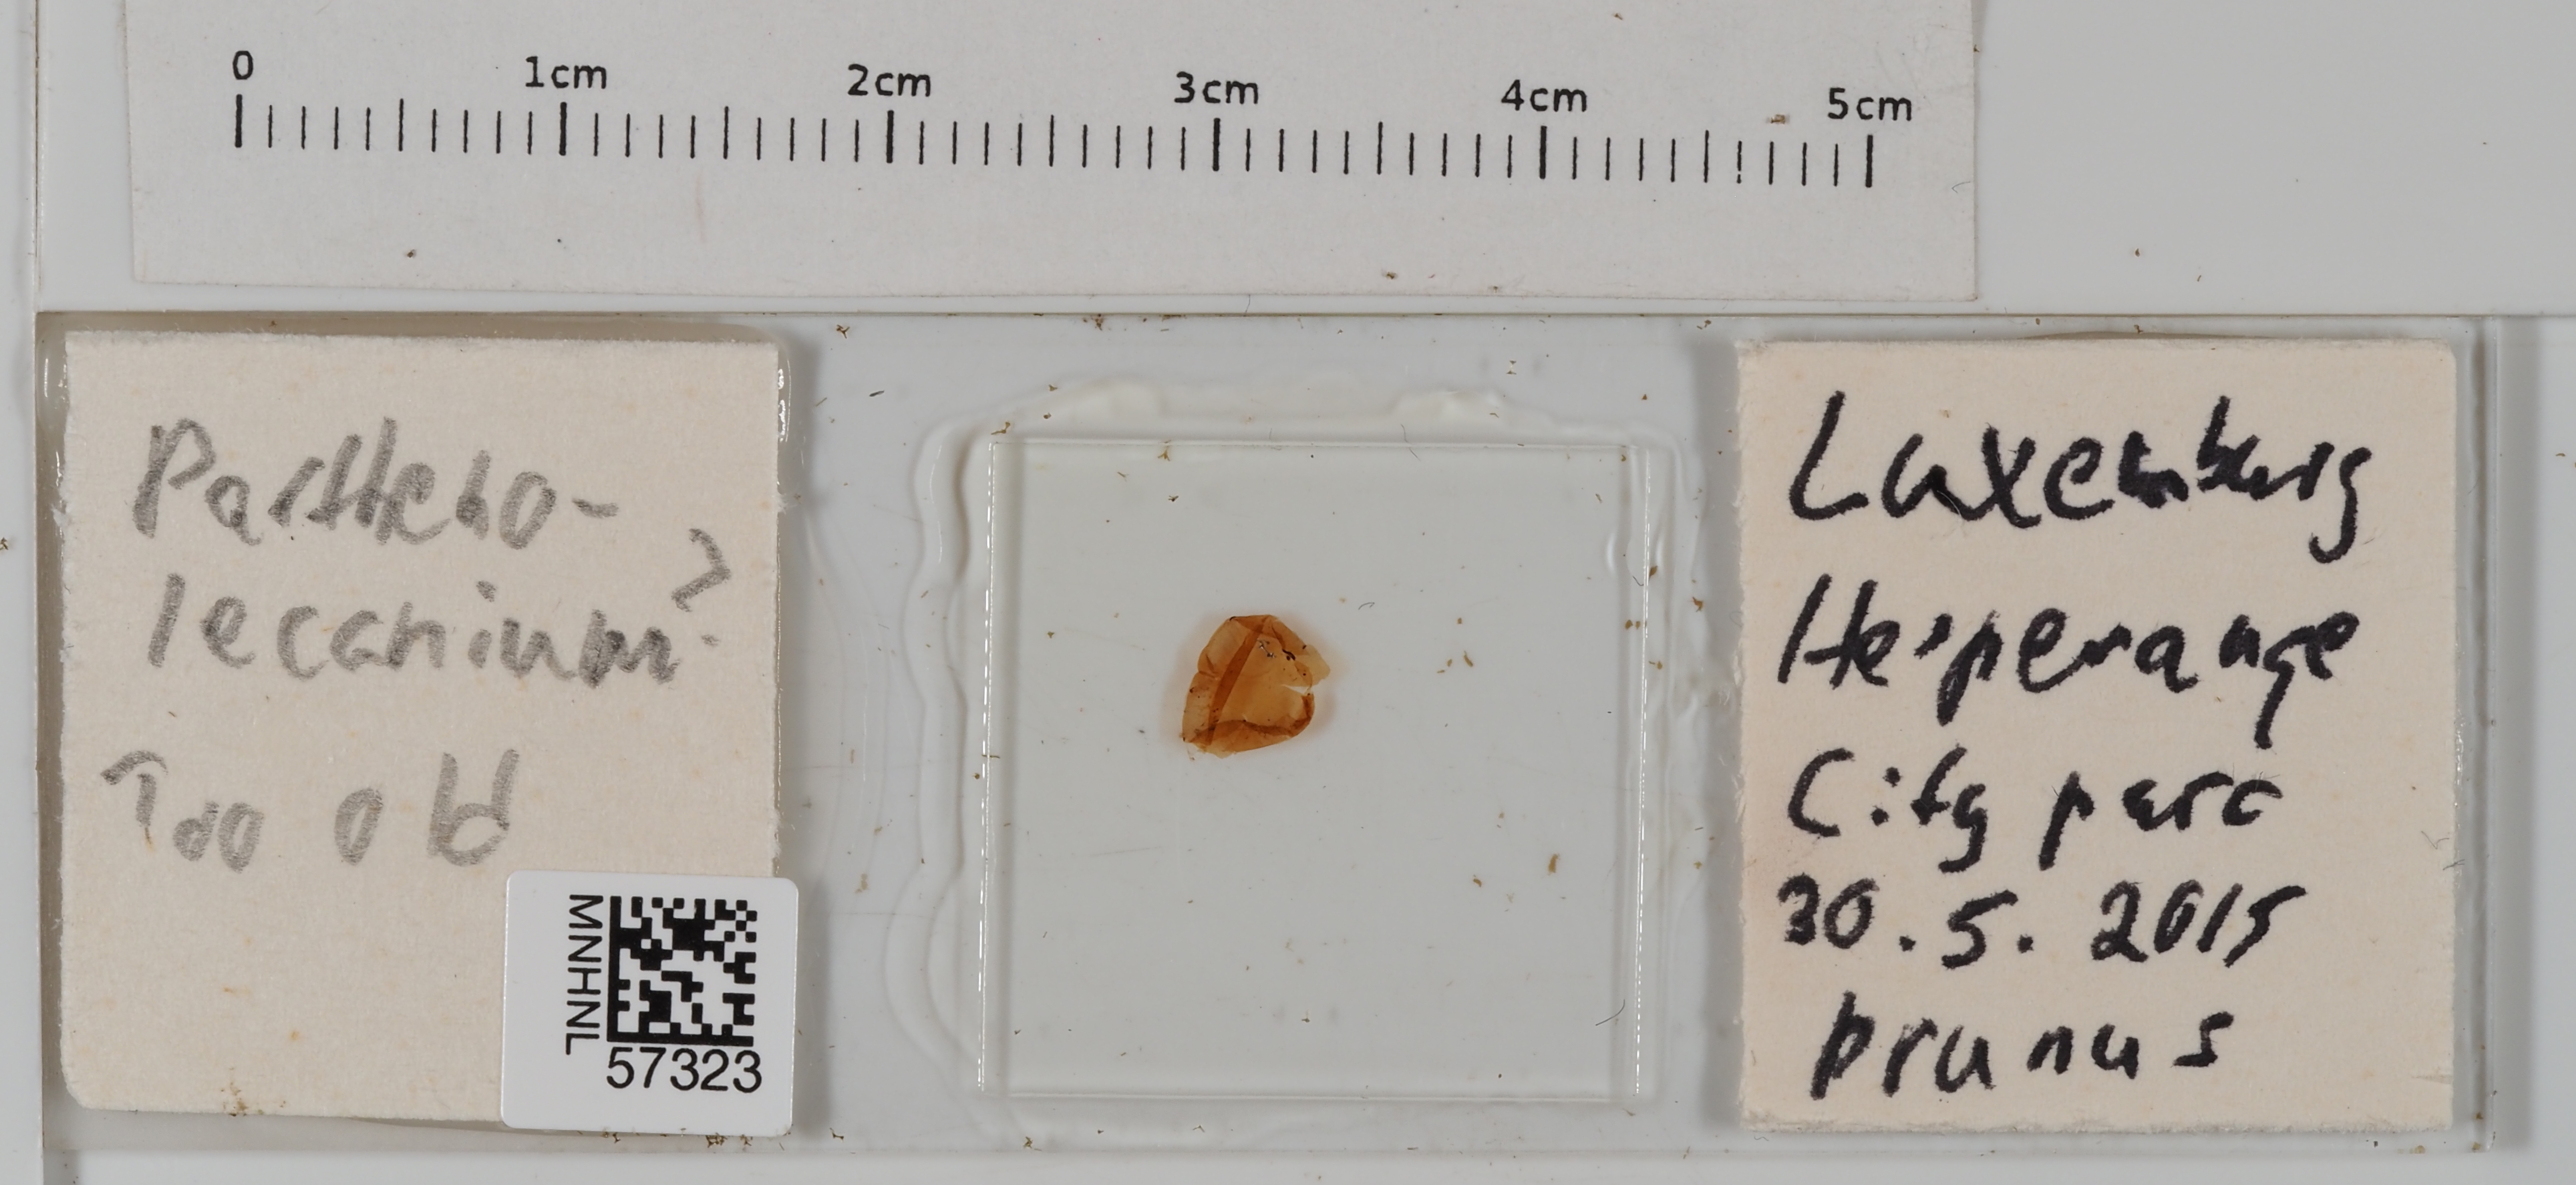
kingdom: Animalia
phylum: Arthropoda
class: Insecta
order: Hemiptera
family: Coccidae
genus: Parthenolecanium
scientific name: Parthenolecanium
